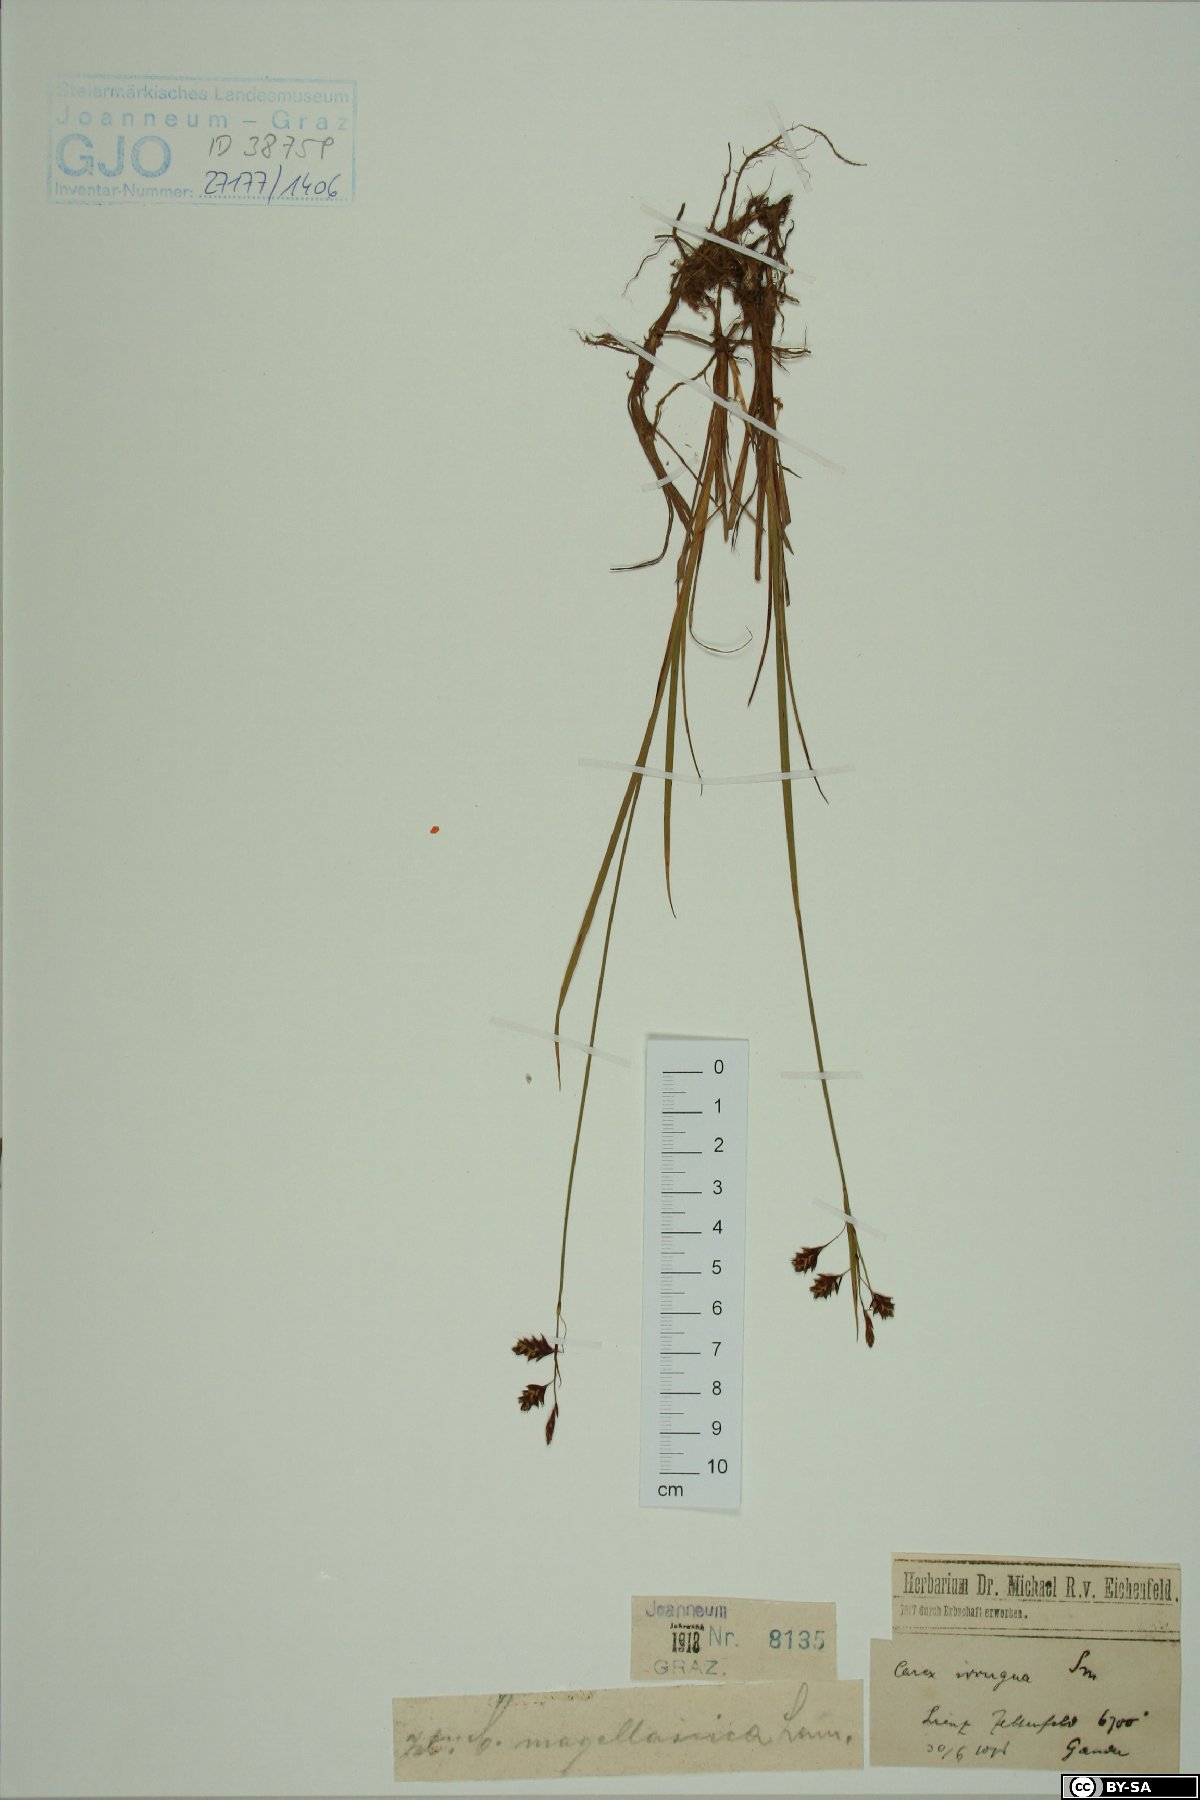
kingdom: Plantae
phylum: Tracheophyta
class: Liliopsida
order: Poales
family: Cyperaceae
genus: Carex
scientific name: Carex magellanica
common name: Bog sedge
